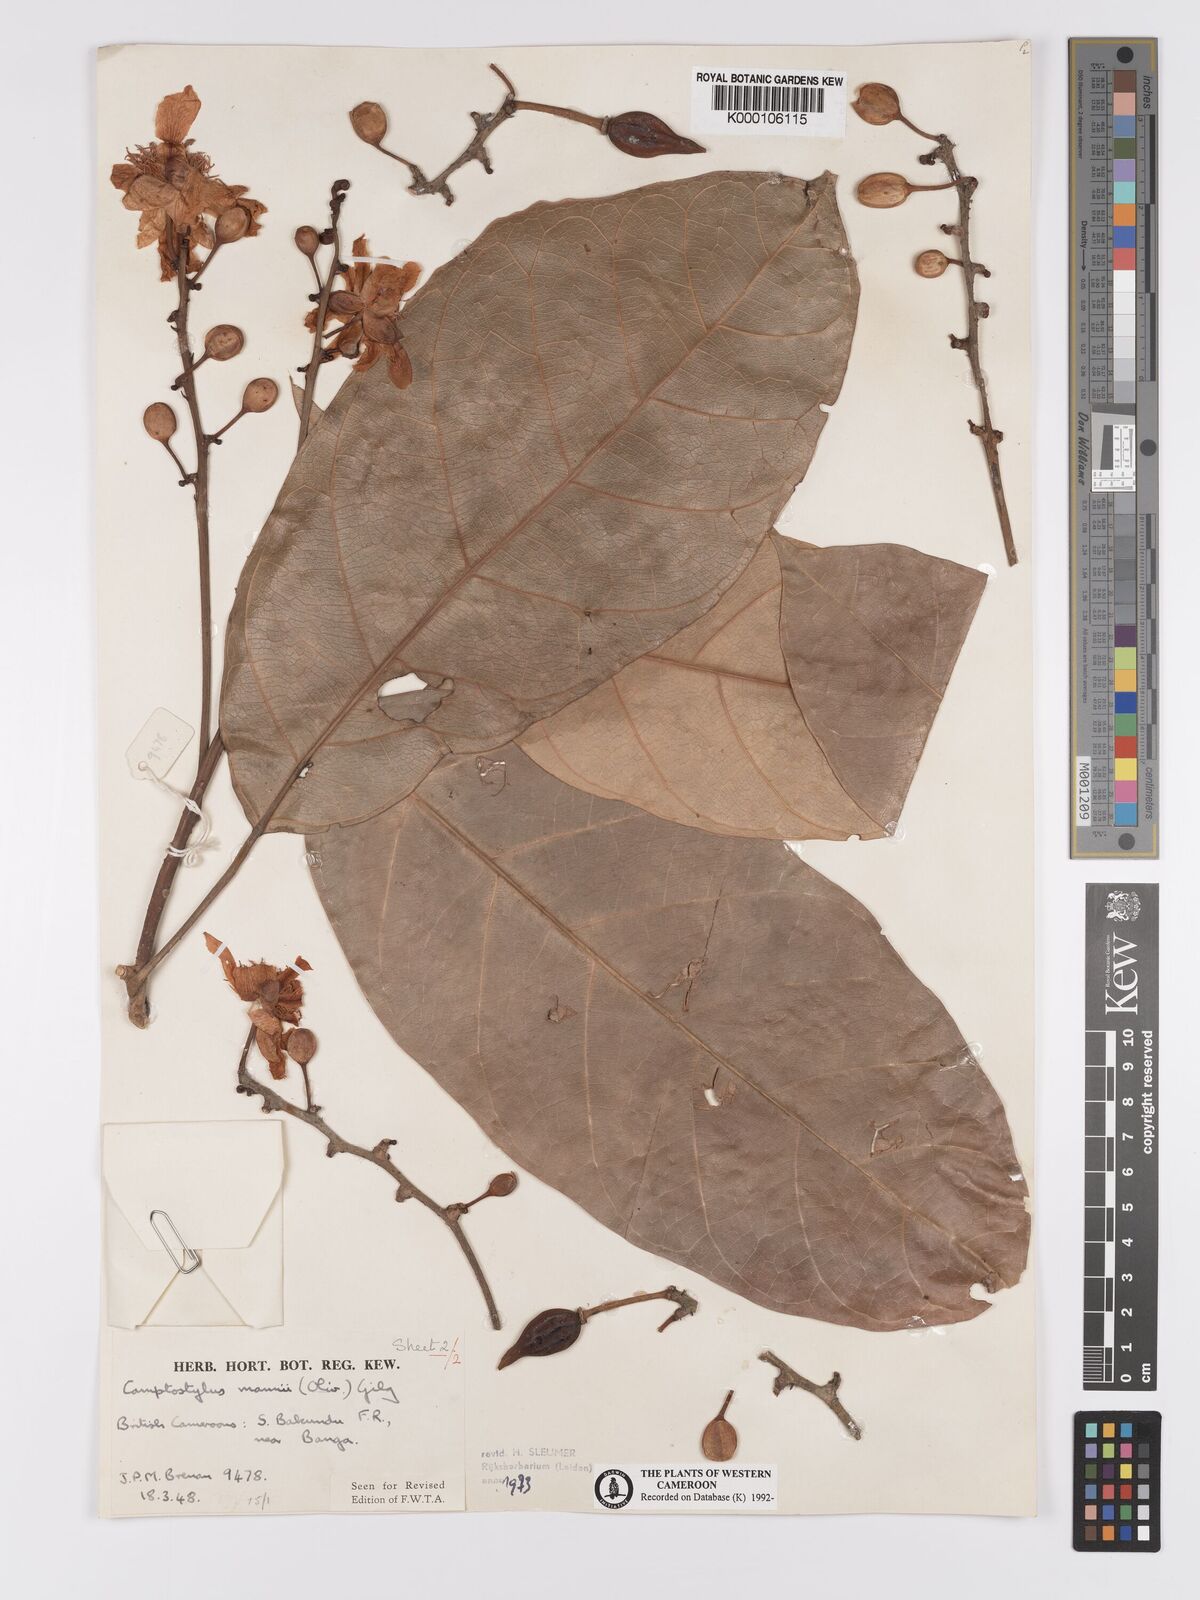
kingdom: Plantae
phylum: Tracheophyta
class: Magnoliopsida
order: Malpighiales
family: Achariaceae
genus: Camptostylus
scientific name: Camptostylus mannii
